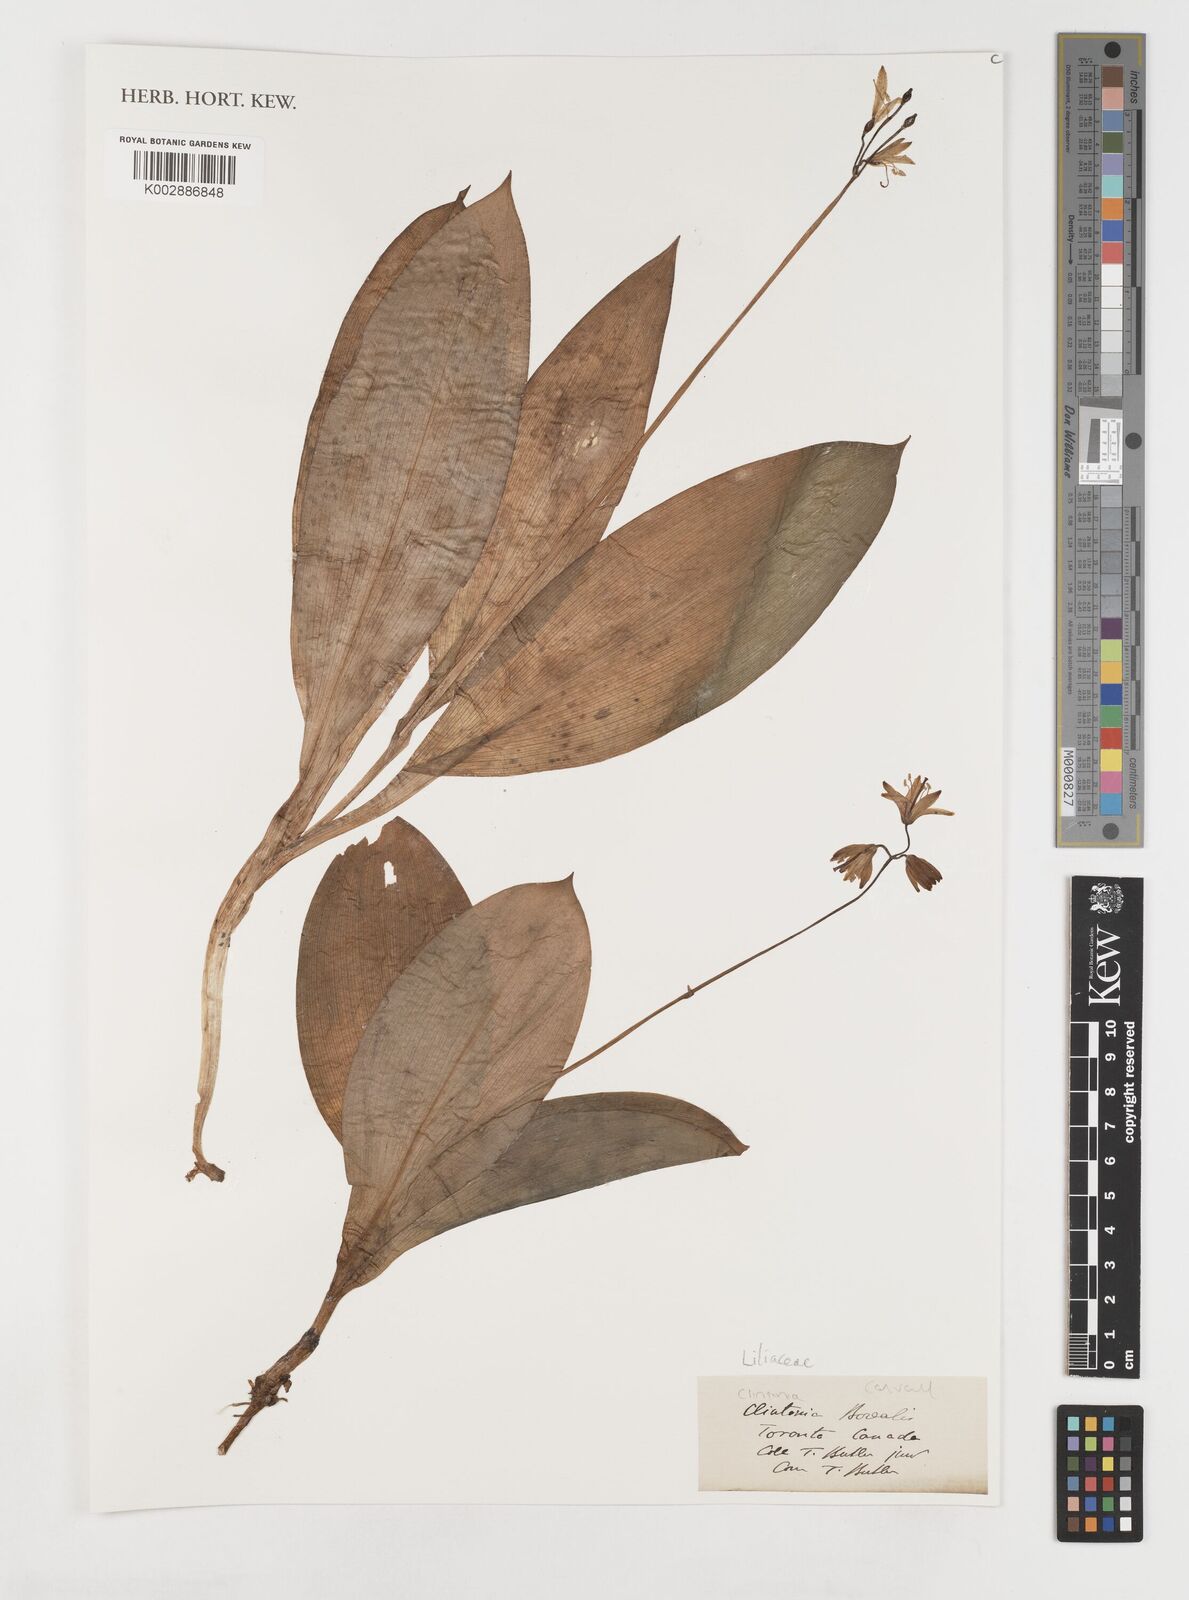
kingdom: Plantae
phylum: Tracheophyta
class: Liliopsida
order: Liliales
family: Liliaceae
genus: Clintonia
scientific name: Clintonia borealis
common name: Yellow clintonia
